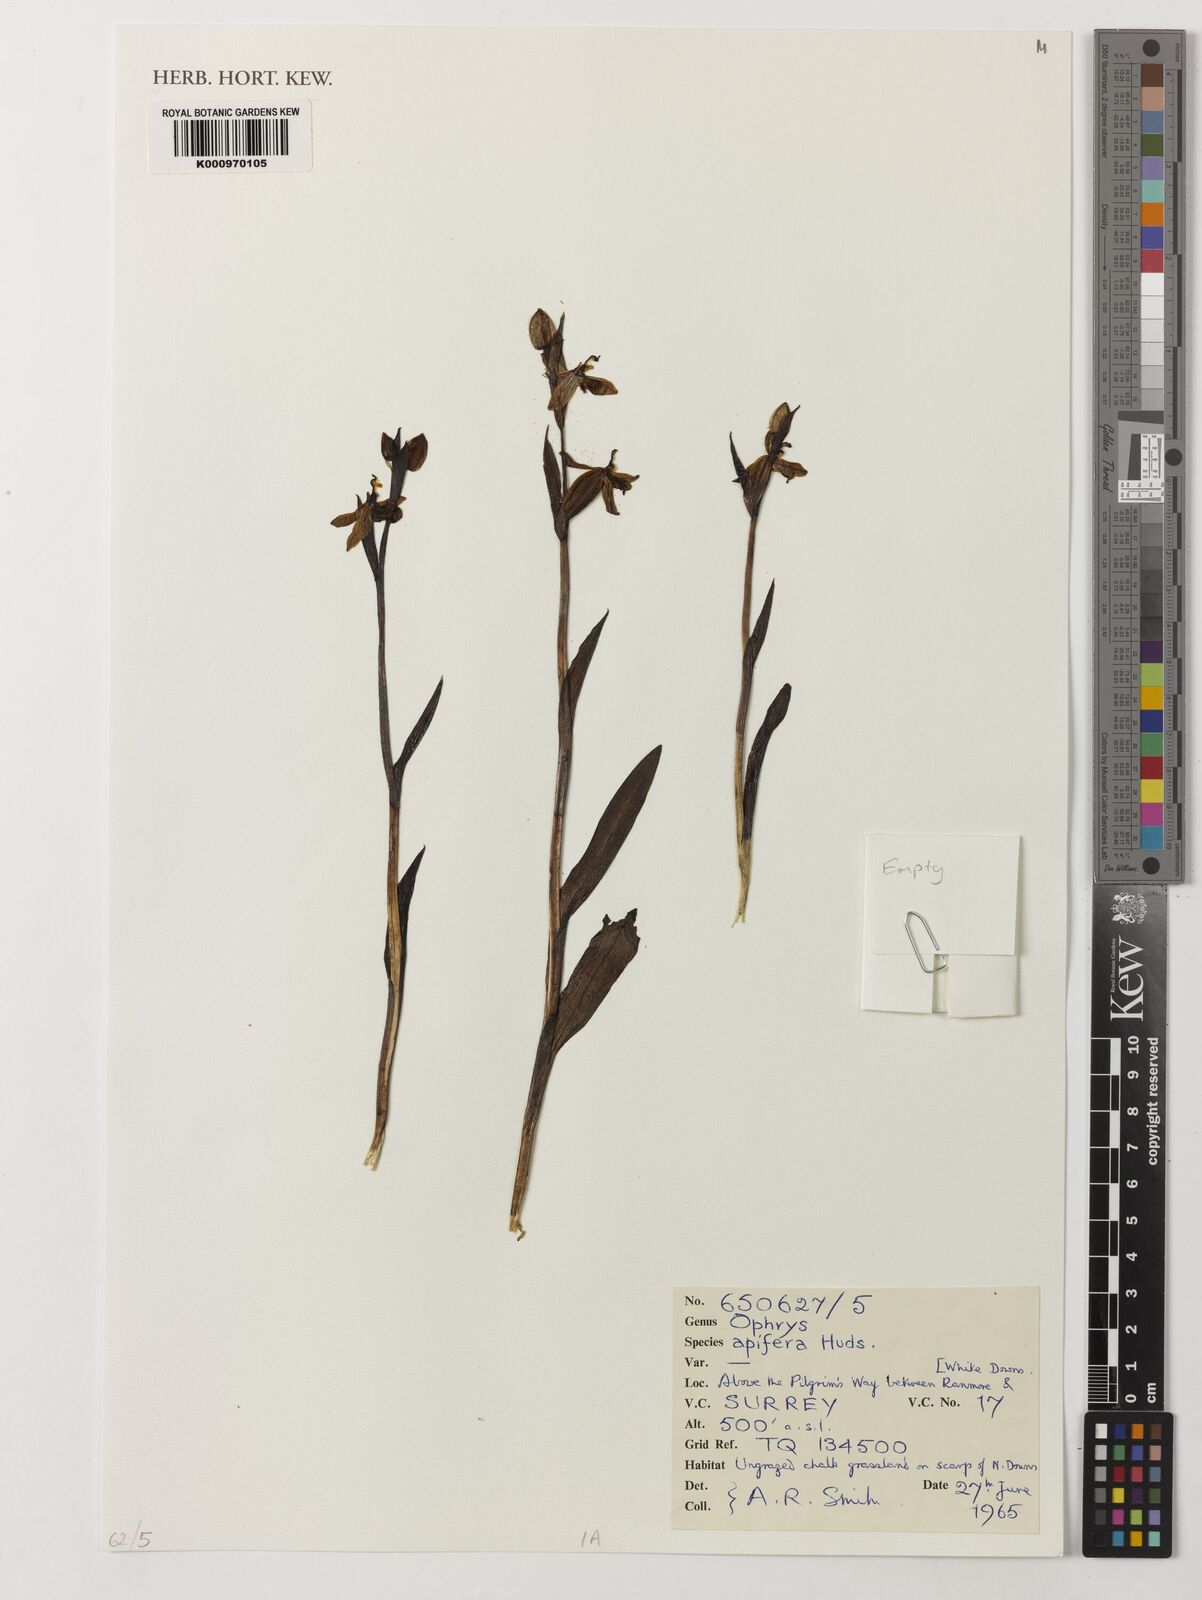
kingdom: Plantae
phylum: Tracheophyta
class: Liliopsida
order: Asparagales
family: Orchidaceae
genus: Ophrys
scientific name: Ophrys apifera
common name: Bee orchid
